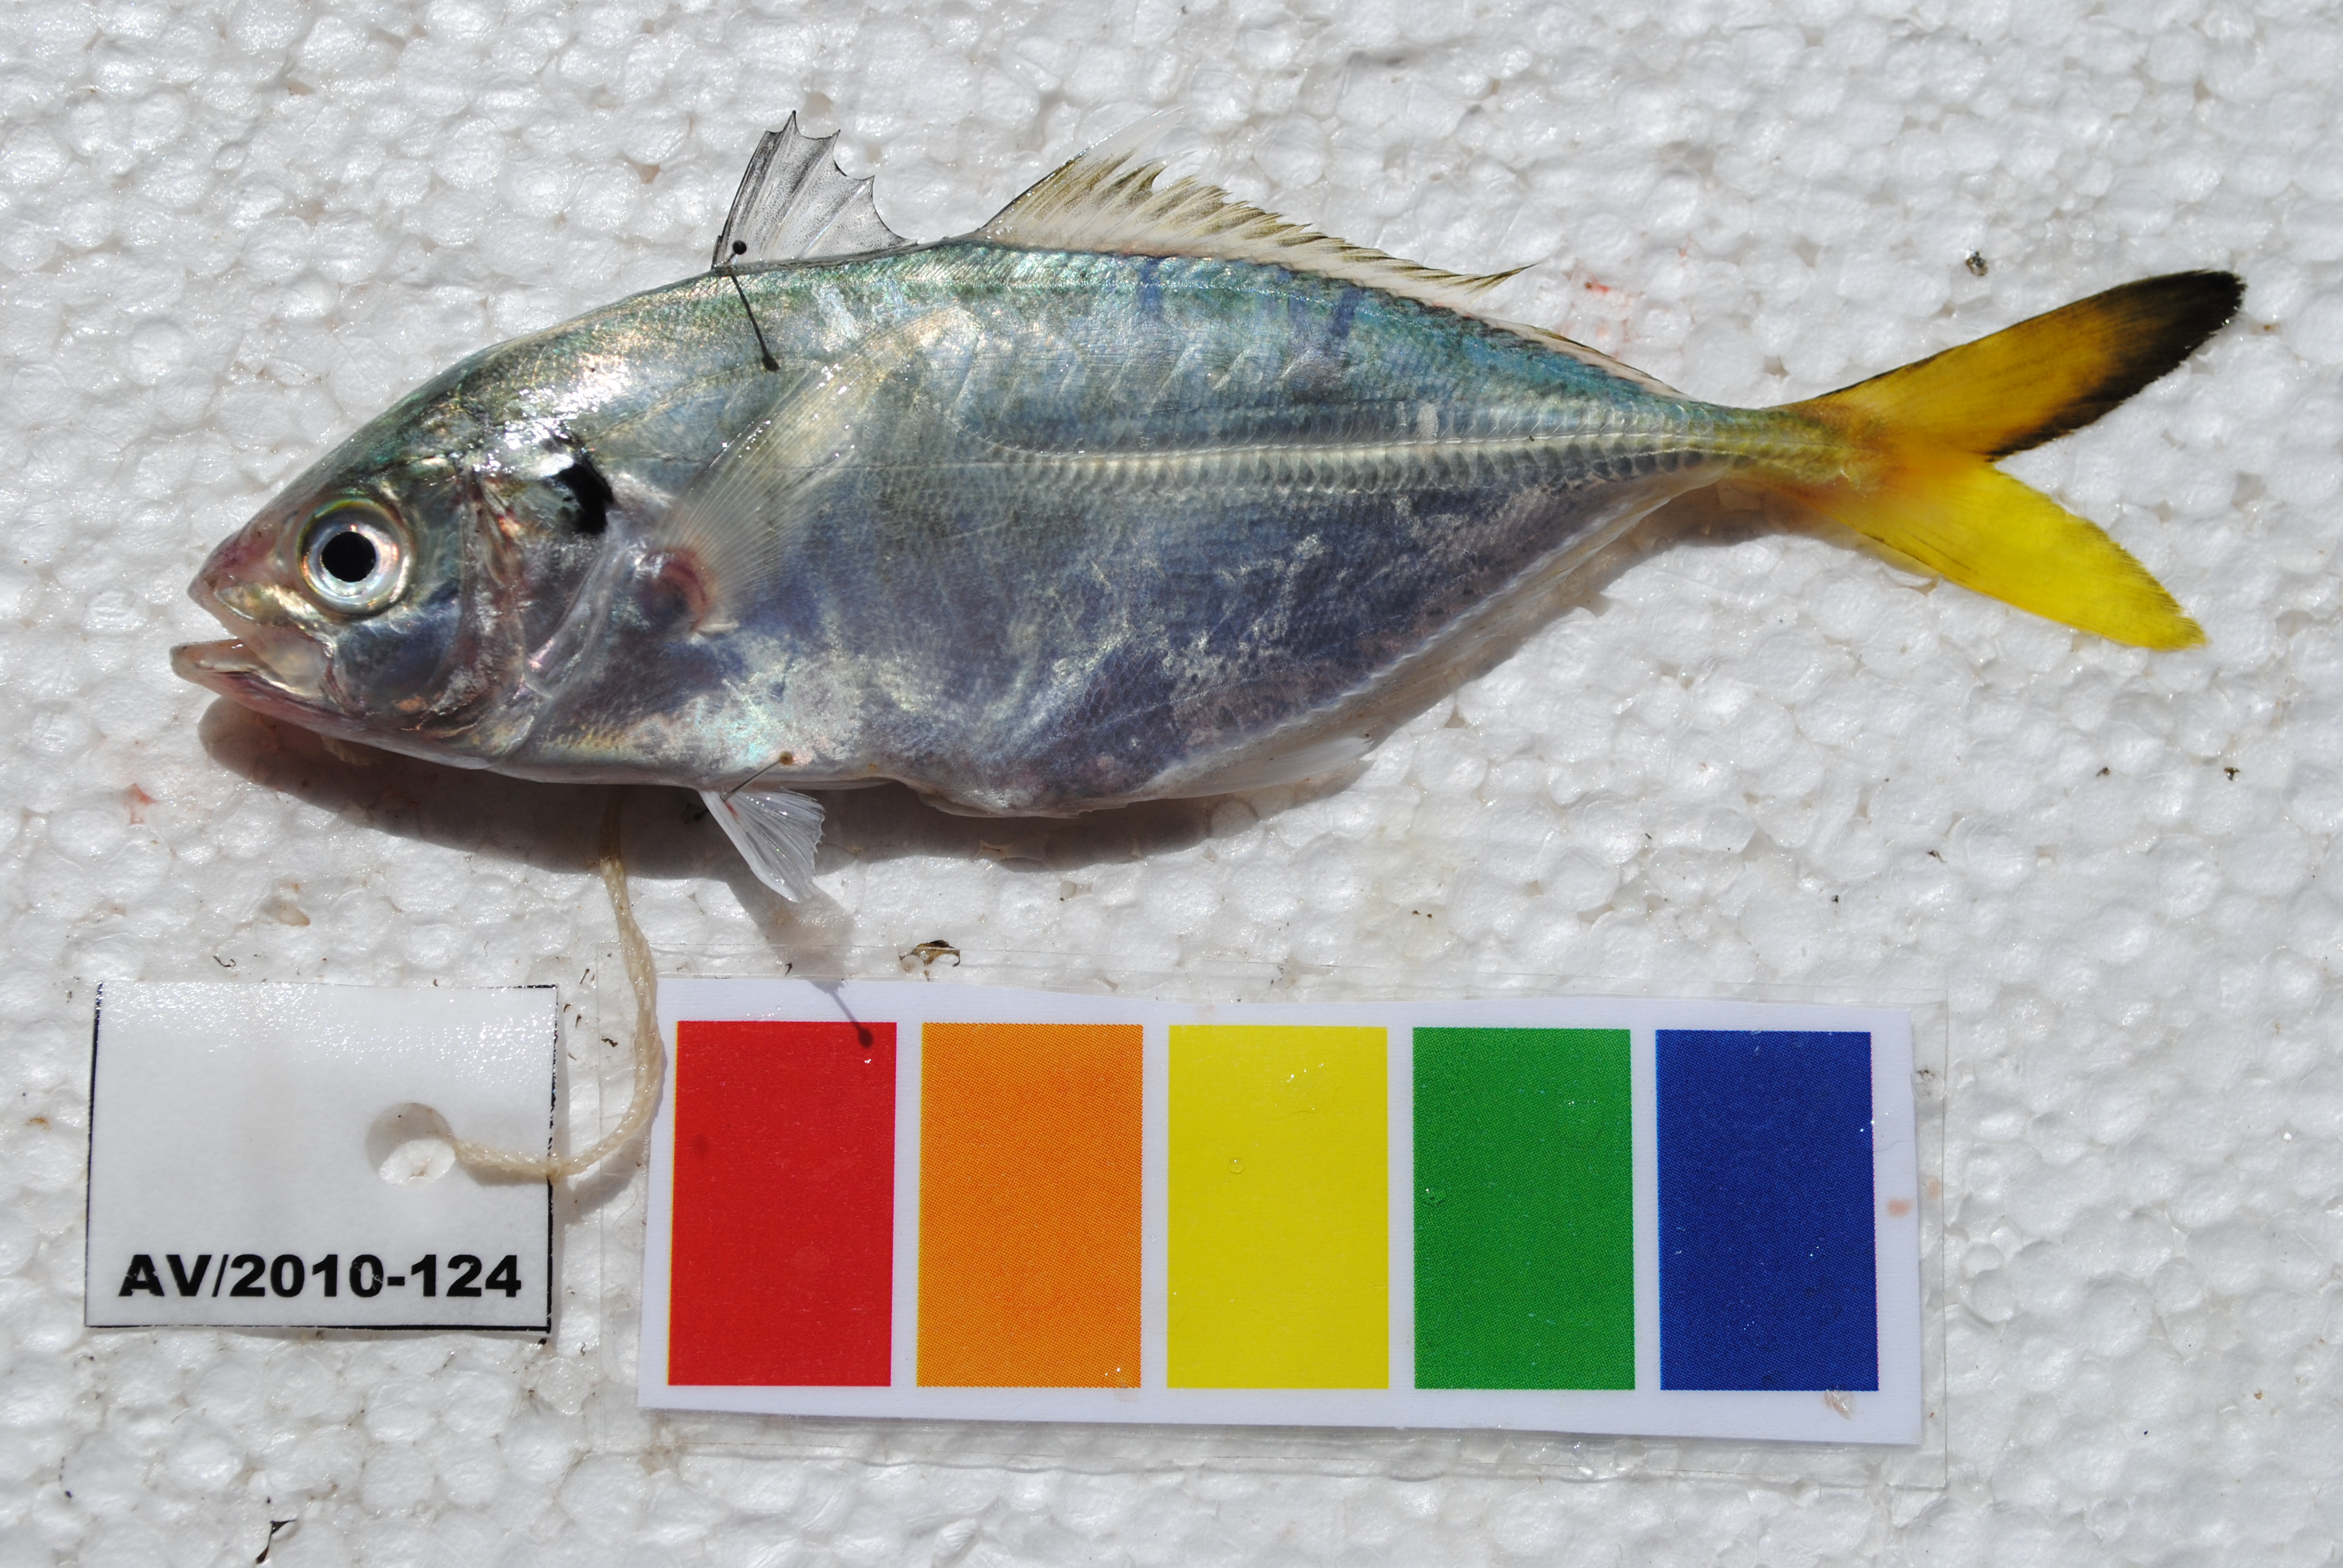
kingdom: Animalia
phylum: Chordata
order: Perciformes
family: Carangidae
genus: Alepes
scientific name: Alepes djedaba
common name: Shrimp scad
